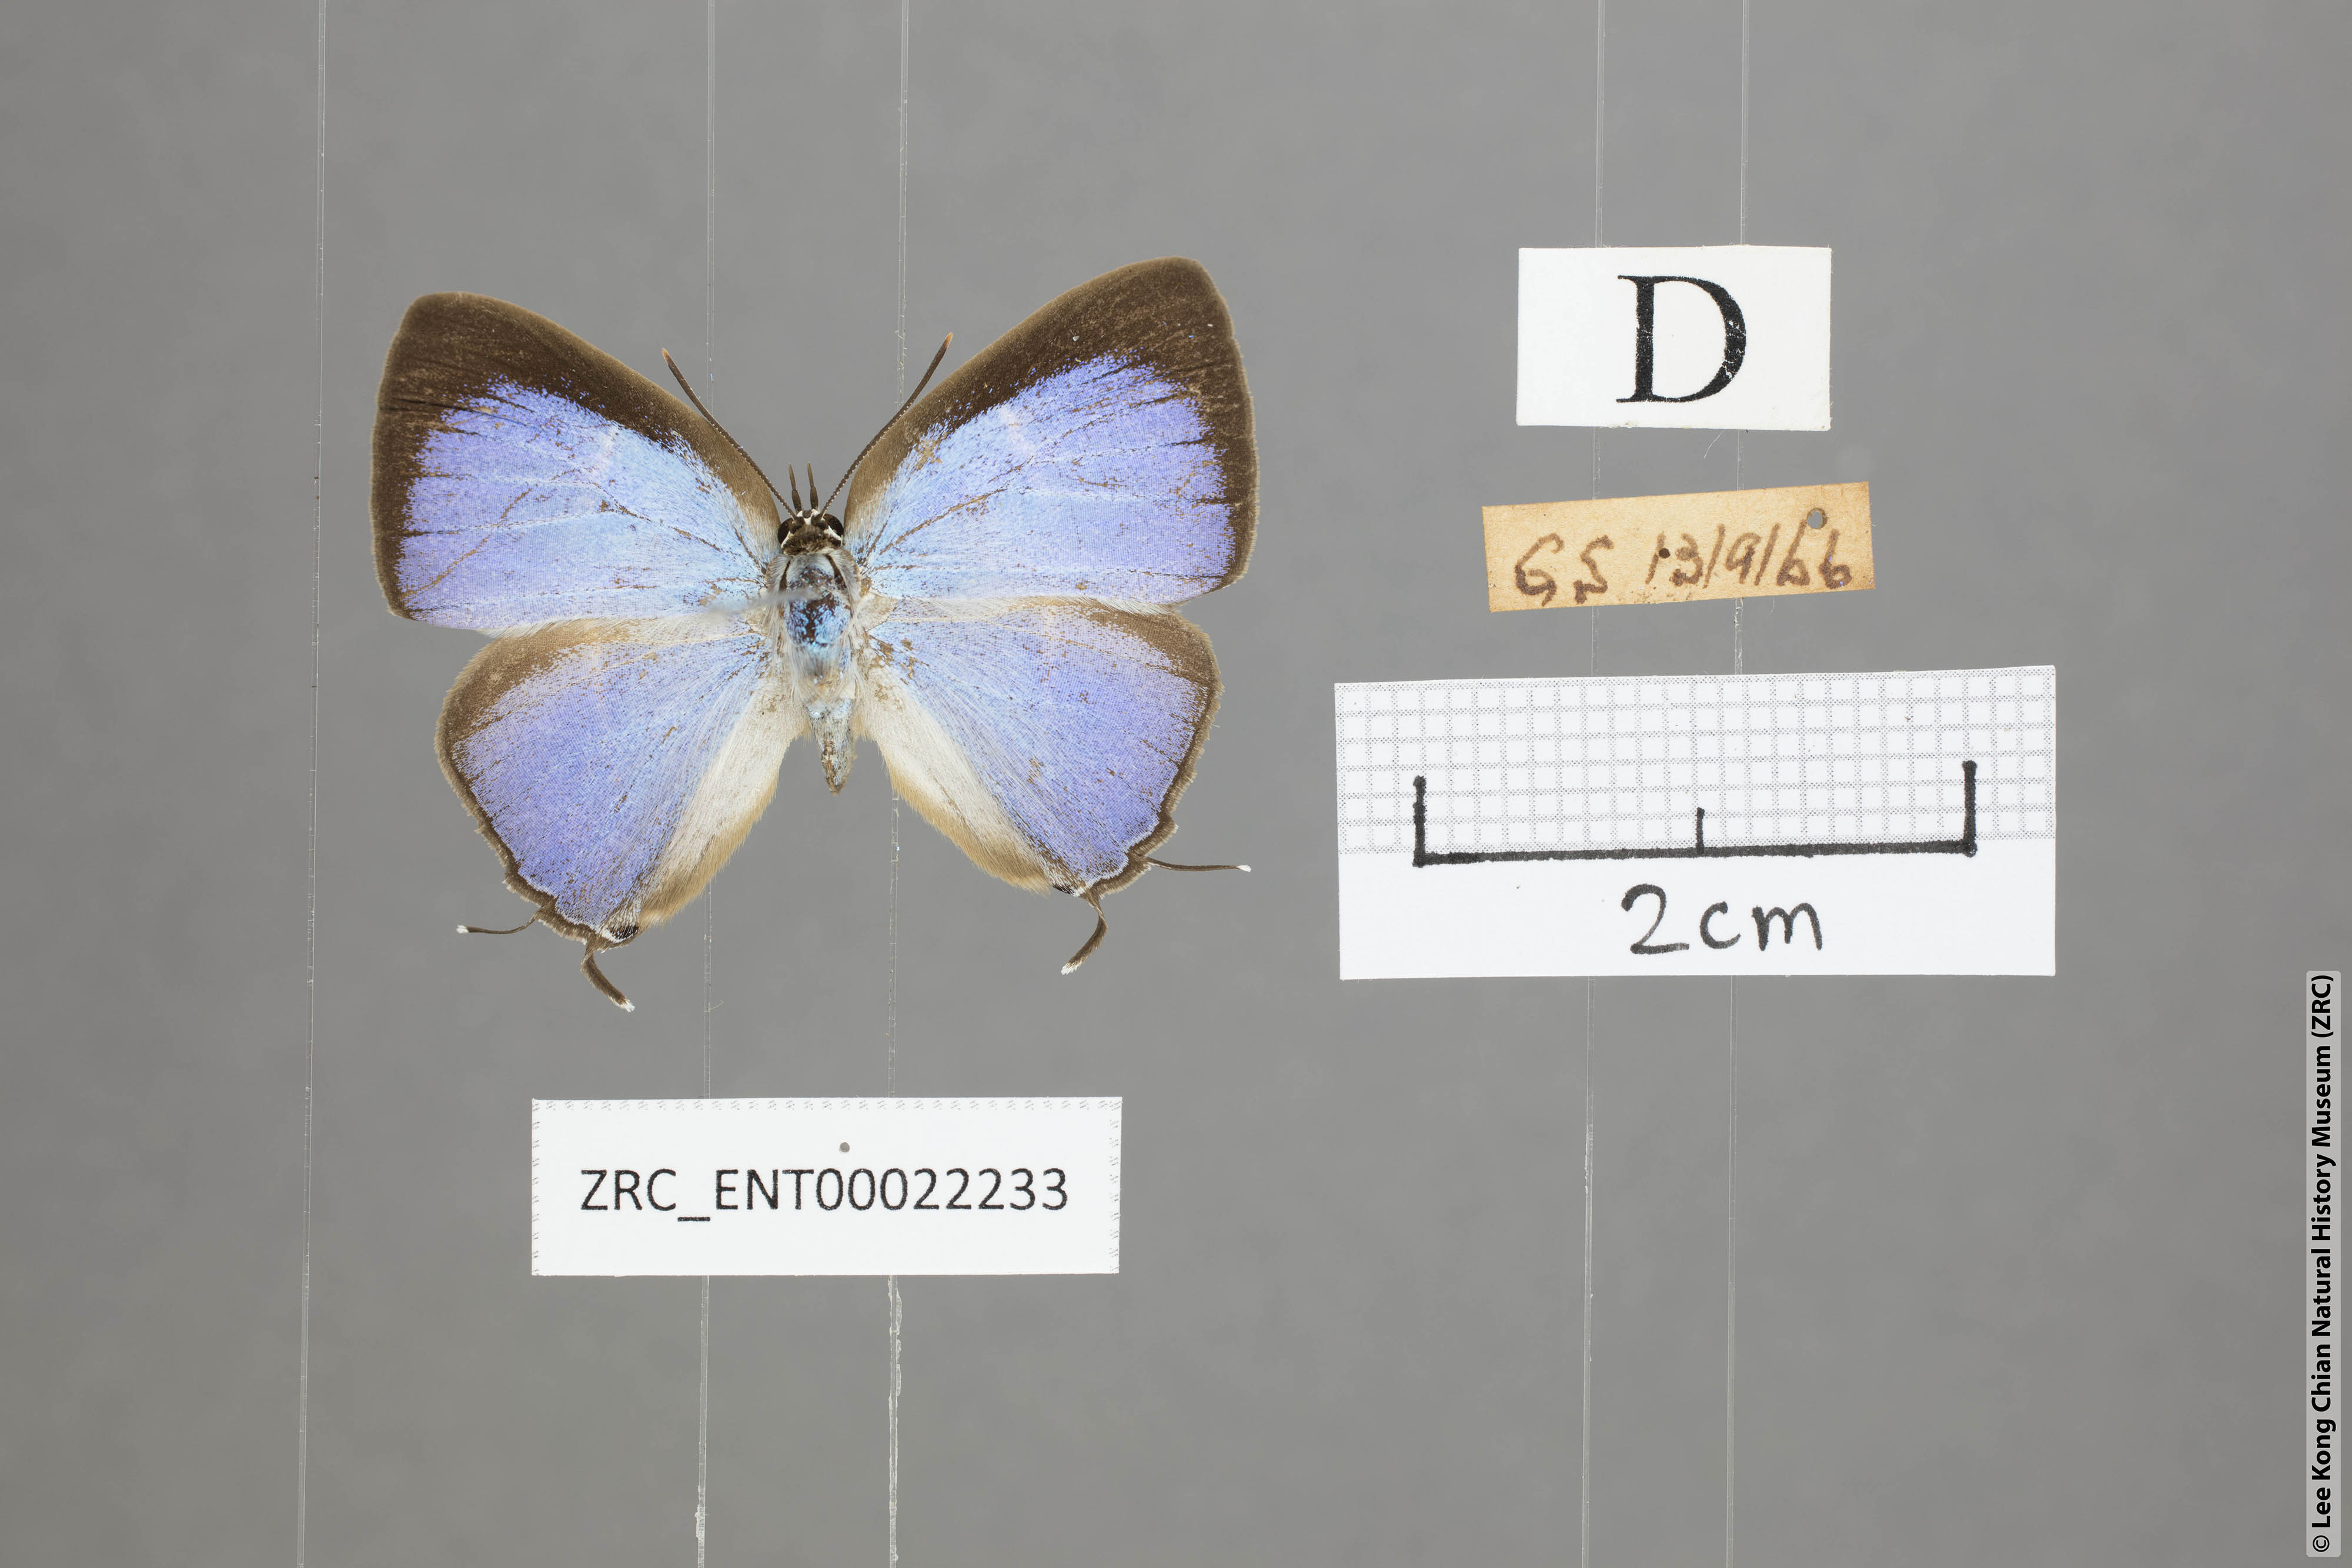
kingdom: Animalia
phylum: Arthropoda
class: Insecta
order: Lepidoptera
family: Lycaenidae
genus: Tajuria
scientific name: Tajuria
